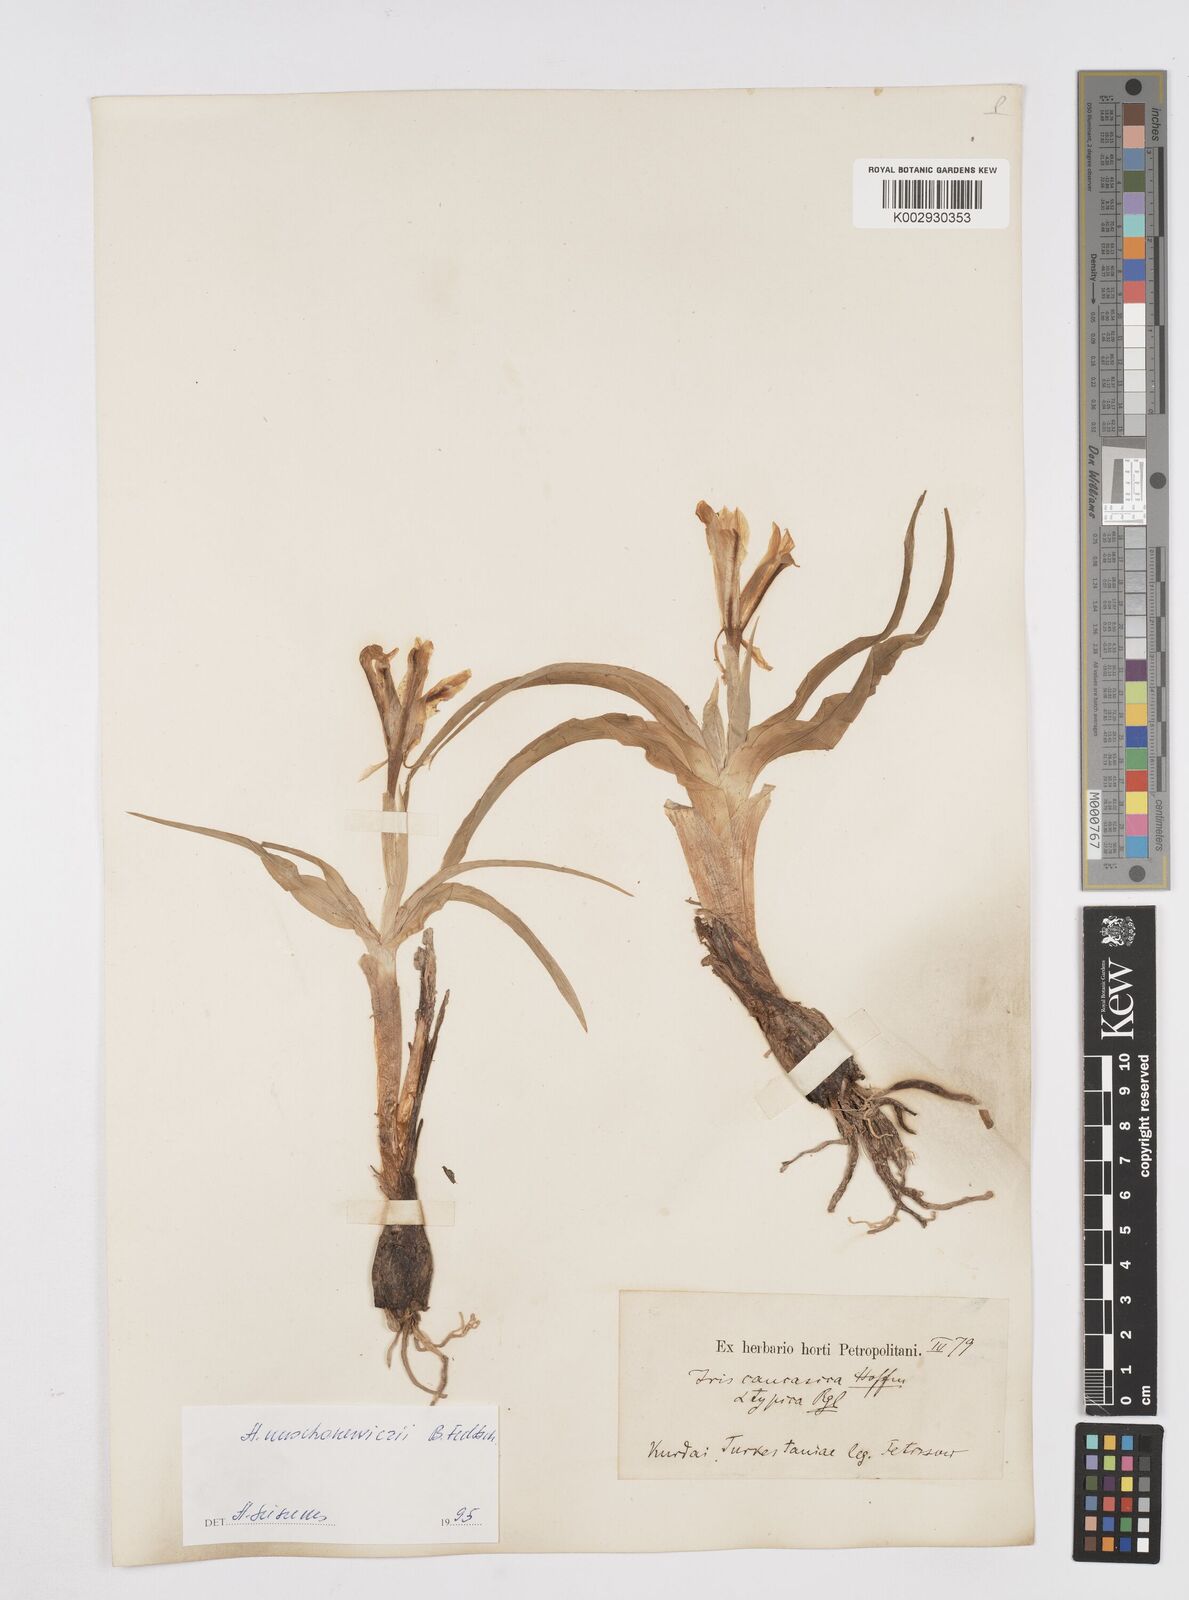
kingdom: Plantae
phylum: Tracheophyta
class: Liliopsida
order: Asparagales
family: Iridaceae
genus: Iris
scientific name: Iris orchioides
